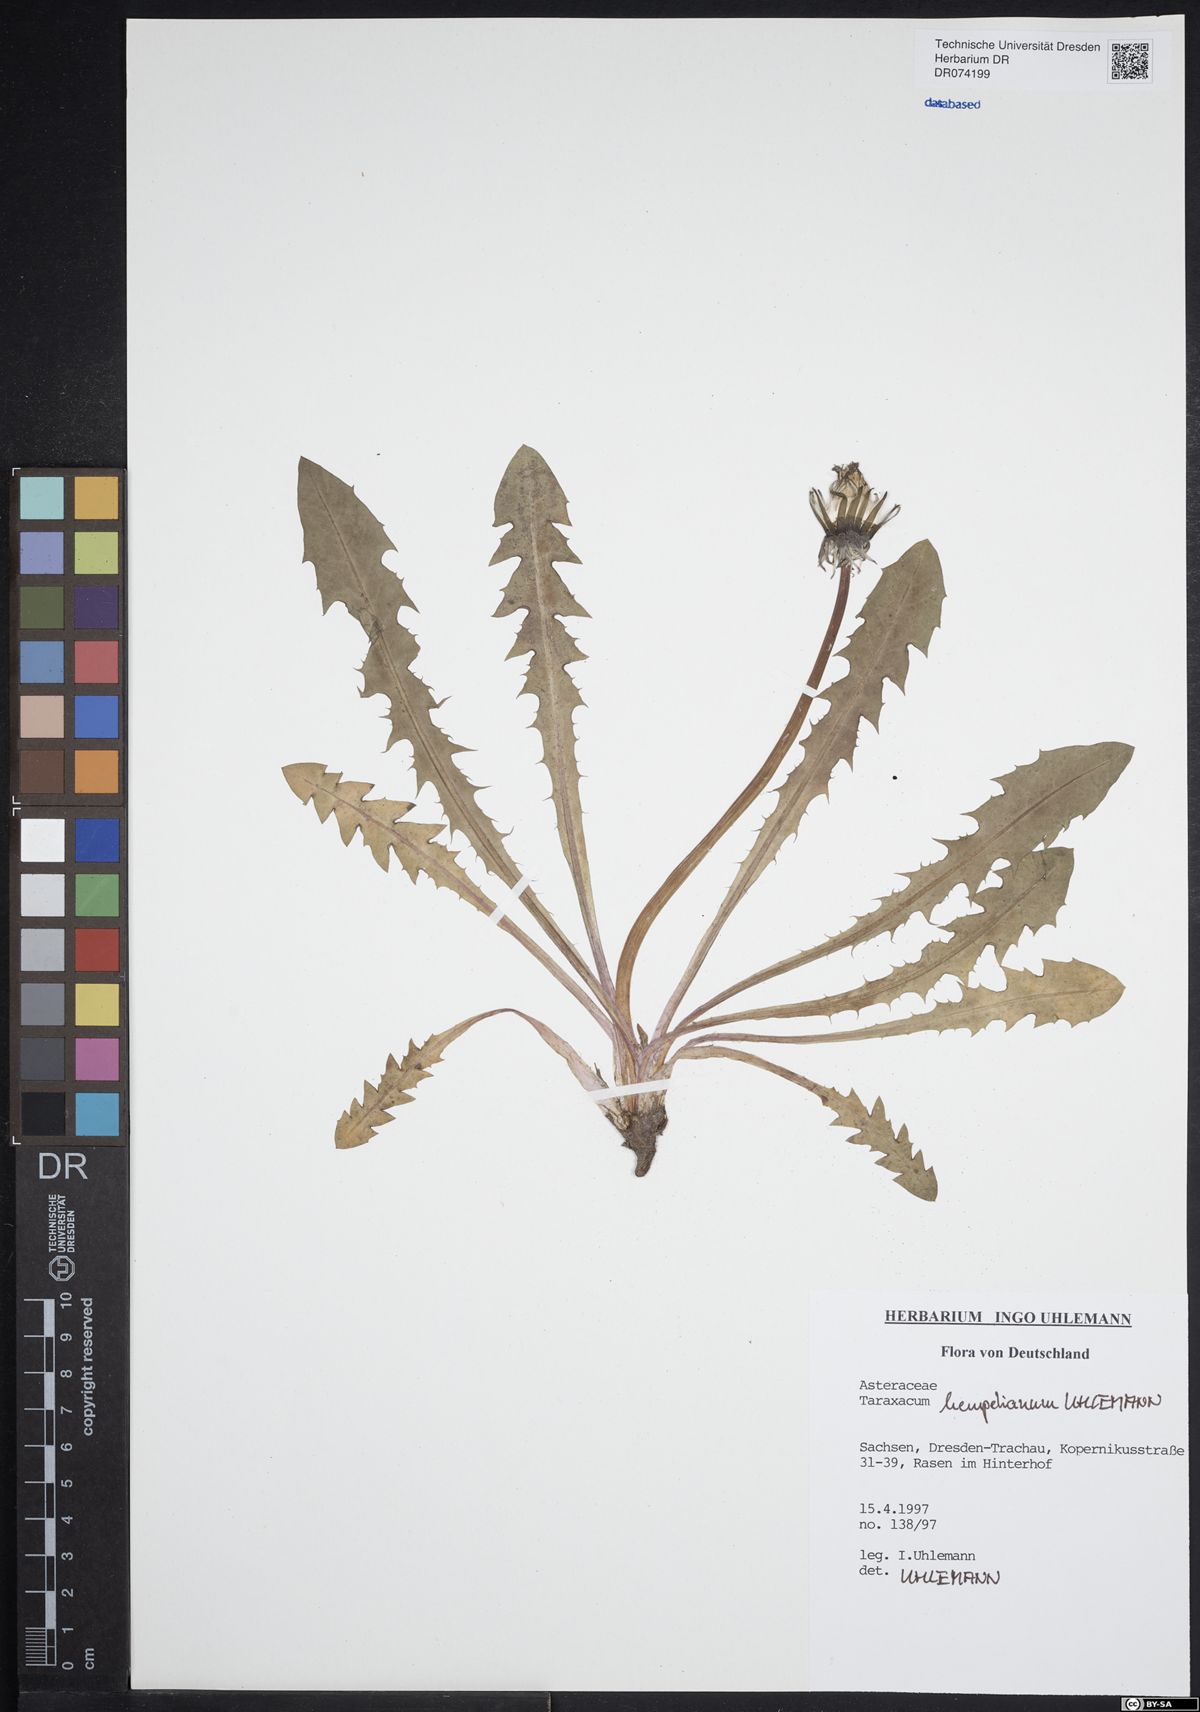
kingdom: Plantae
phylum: Tracheophyta
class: Magnoliopsida
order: Asterales
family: Asteraceae
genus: Taraxacum
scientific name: Taraxacum hempelianum
